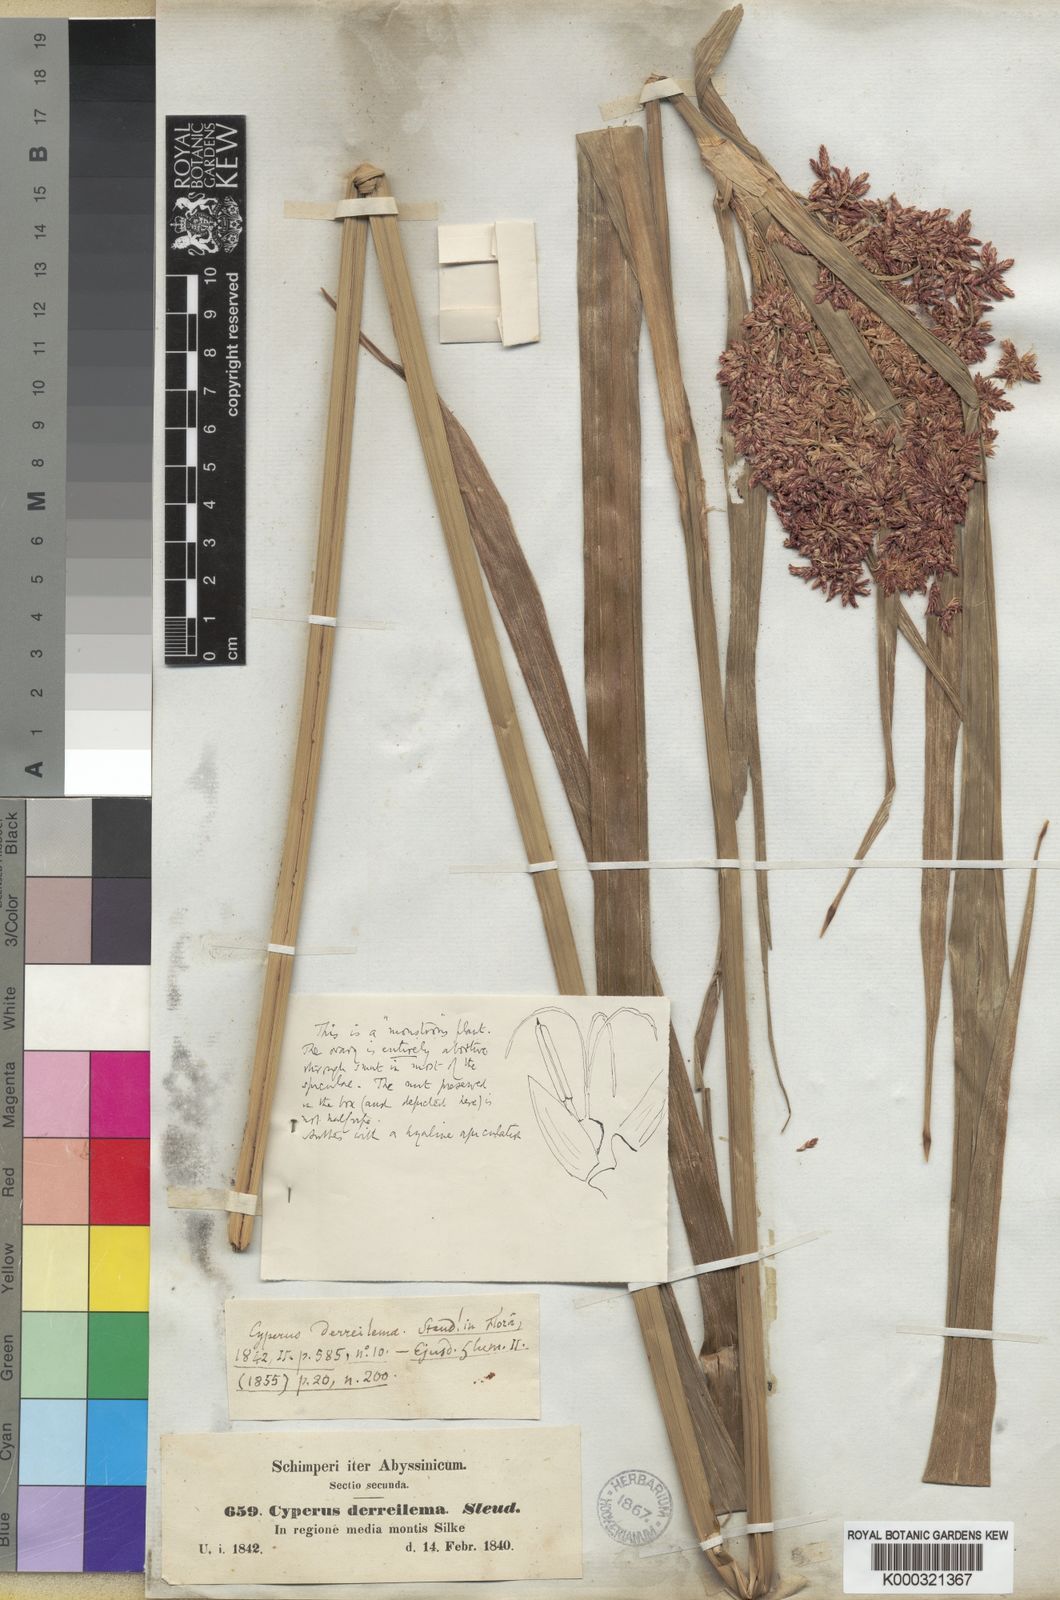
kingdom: Plantae
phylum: Tracheophyta
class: Liliopsida
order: Poales
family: Cyperaceae
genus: Cyperus
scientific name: Cyperus derreilema
